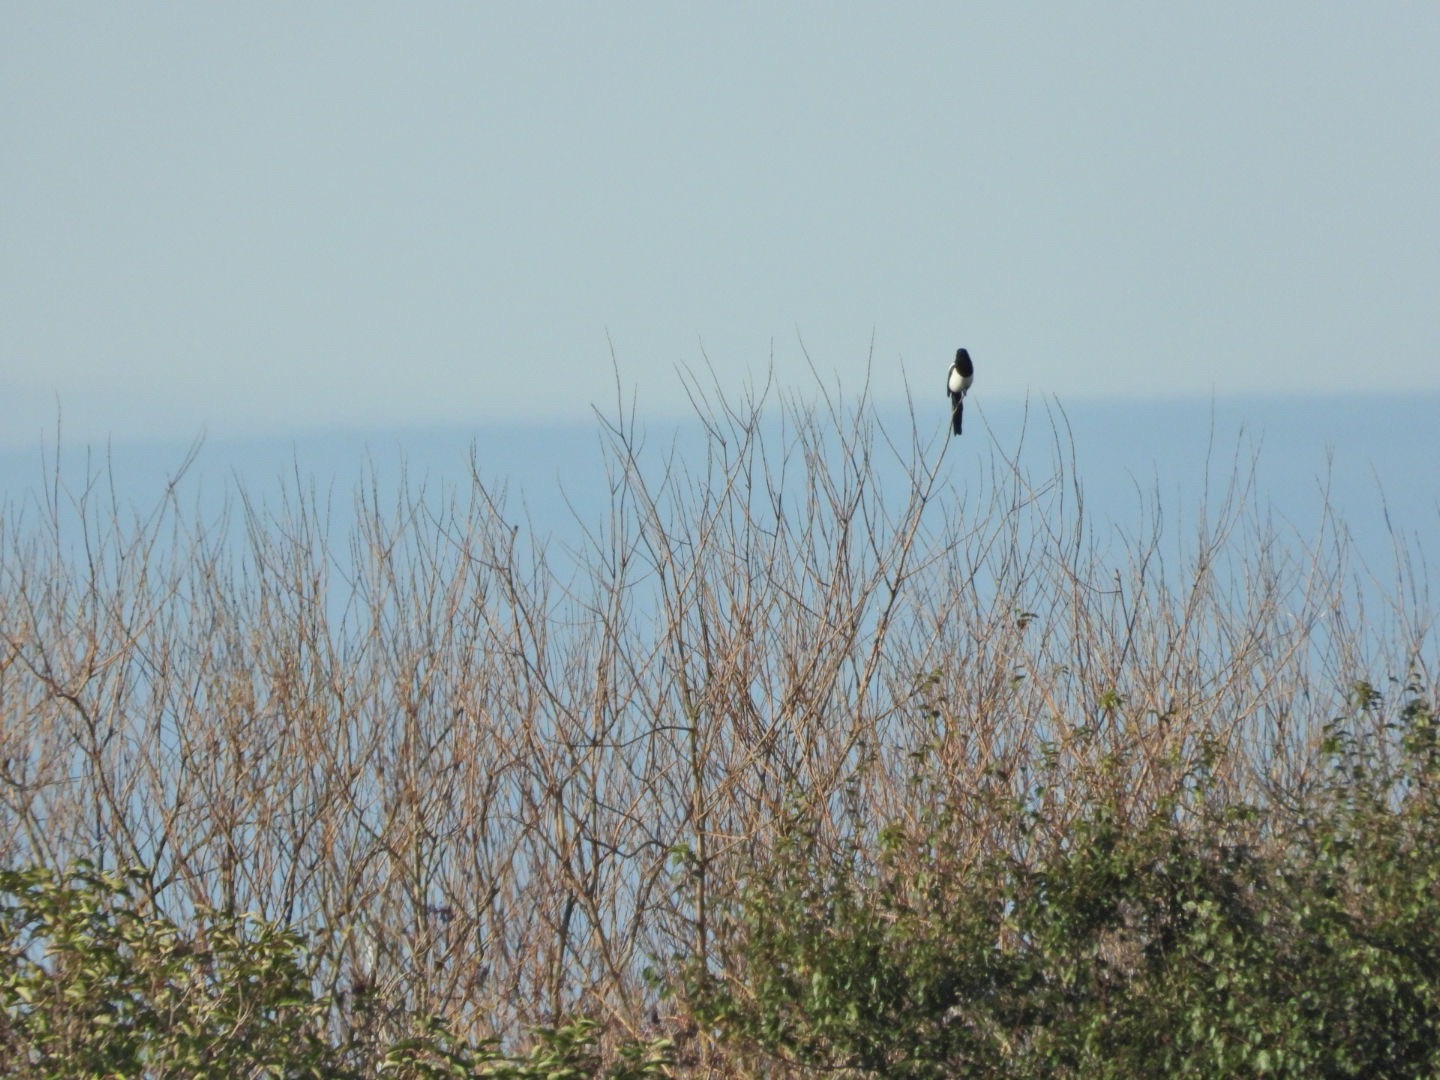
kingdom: Animalia
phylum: Chordata
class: Aves
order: Passeriformes
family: Corvidae
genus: Pica
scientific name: Pica pica
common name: Husskade
